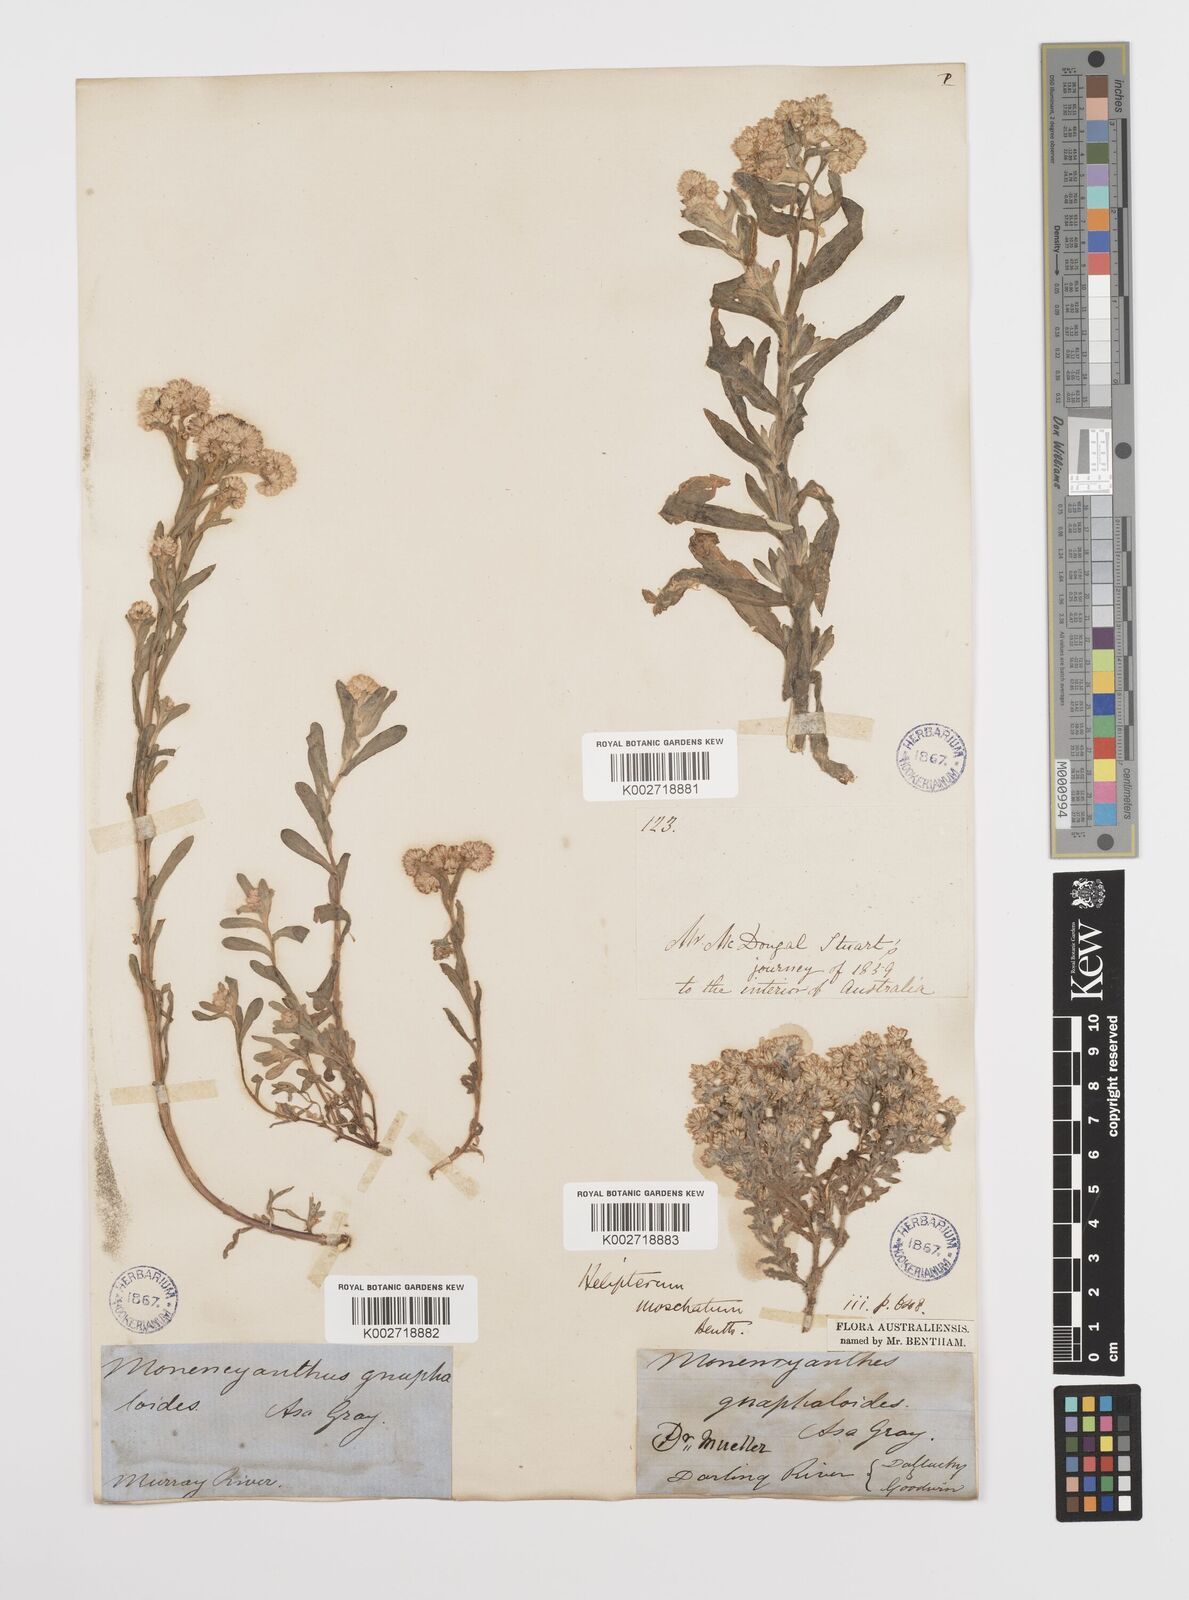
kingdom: Plantae
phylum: Tracheophyta
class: Magnoliopsida
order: Asterales
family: Asteraceae
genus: Rhodanthe
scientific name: Rhodanthe moschata
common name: Musk sunray
